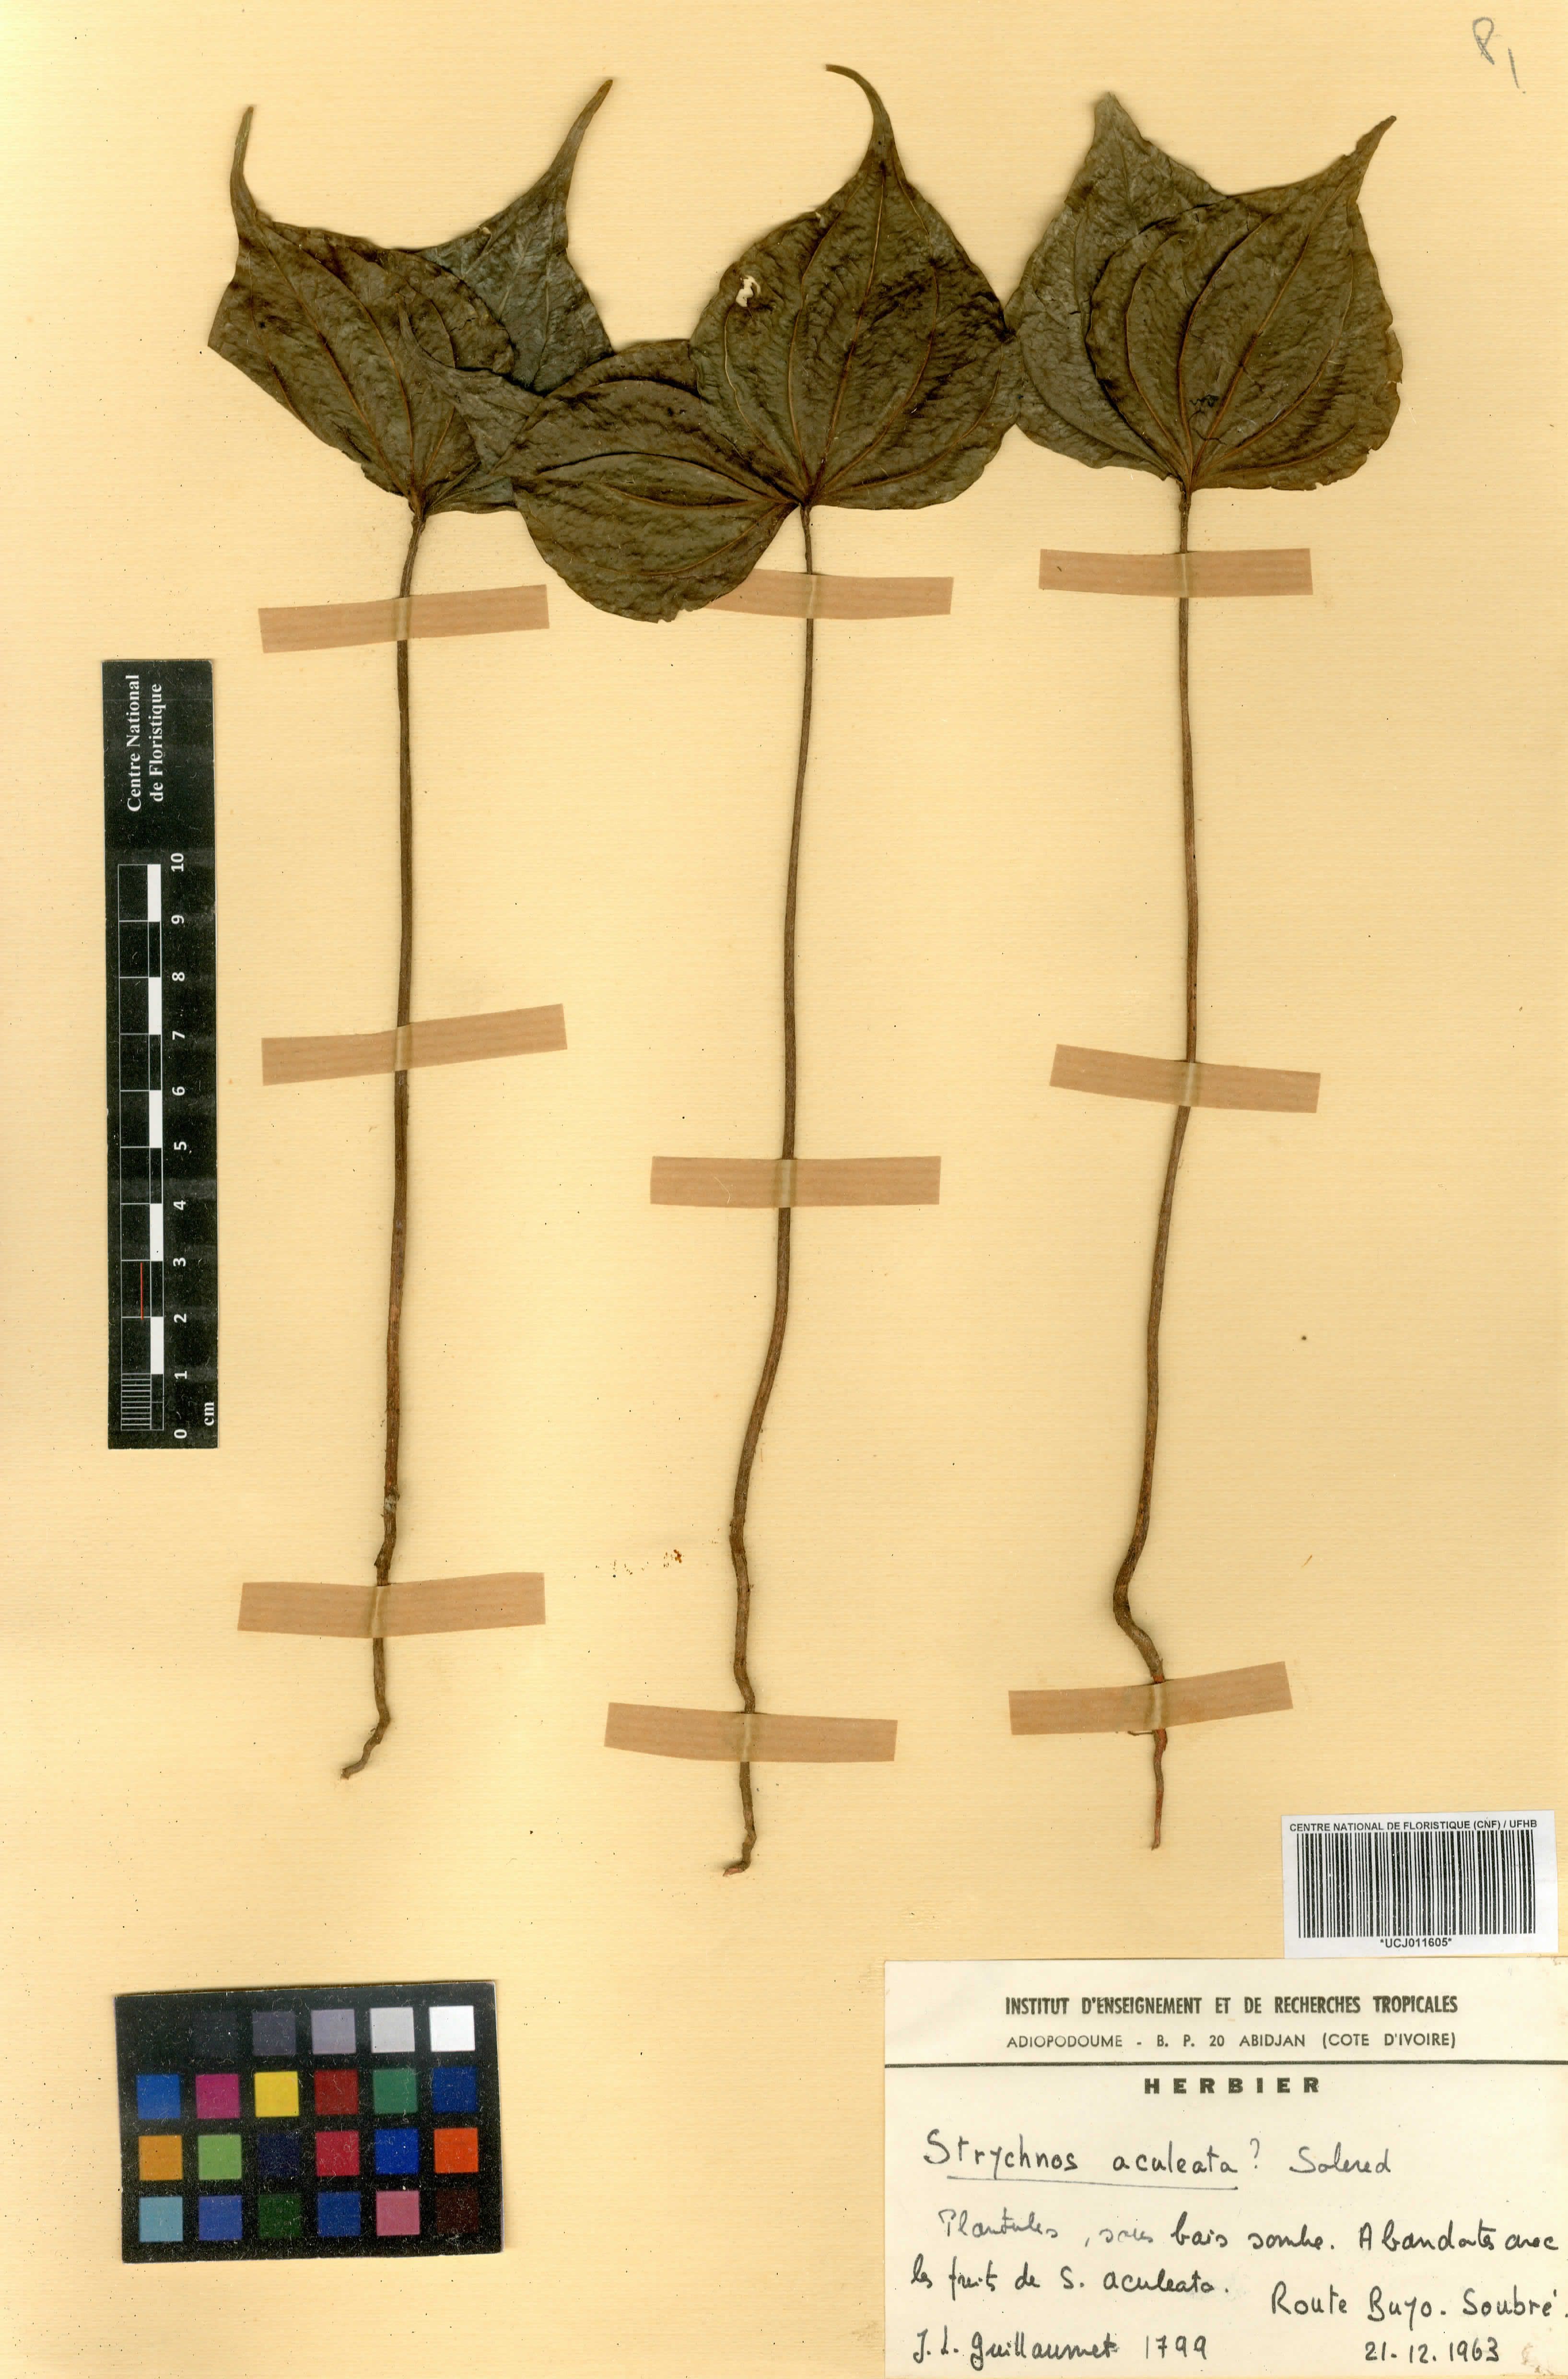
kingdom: Plantae
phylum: Tracheophyta
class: Magnoliopsida
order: Gentianales
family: Loganiaceae
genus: Strychnos
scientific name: Strychnos aculeata
